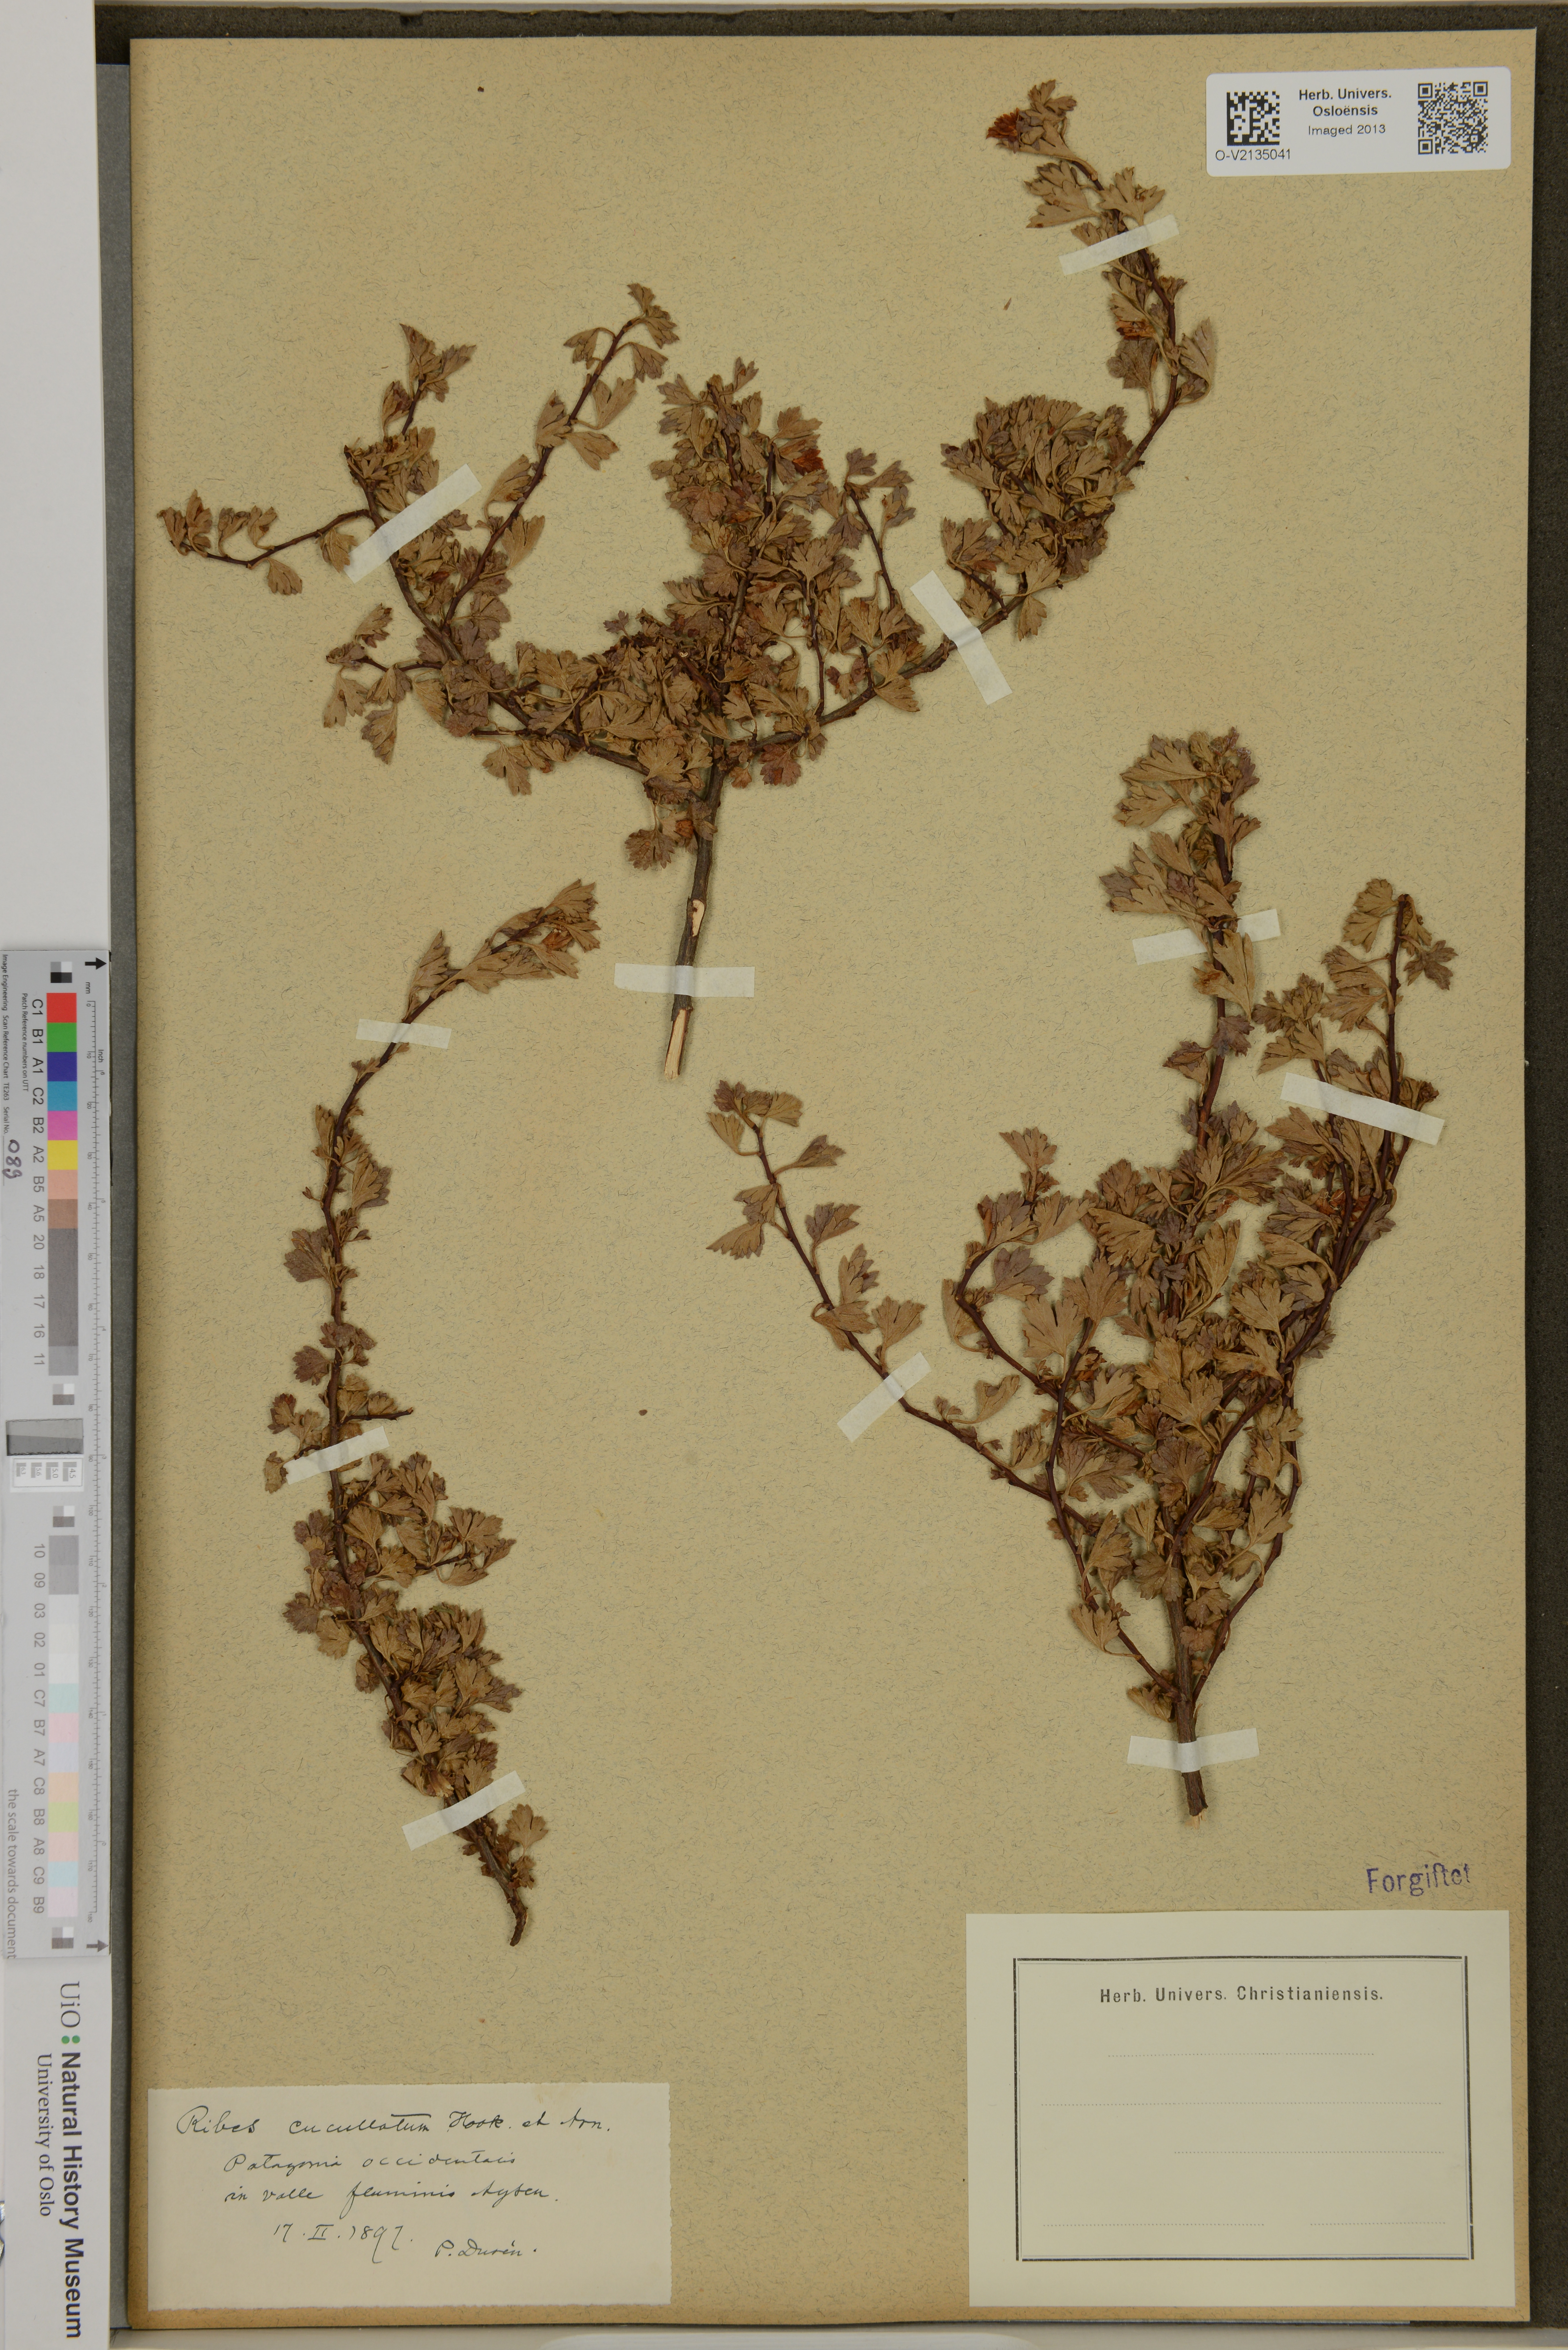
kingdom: Plantae
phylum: Tracheophyta
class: Magnoliopsida
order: Saxifragales
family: Grossulariaceae
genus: Ribes
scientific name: Ribes cucullatum
